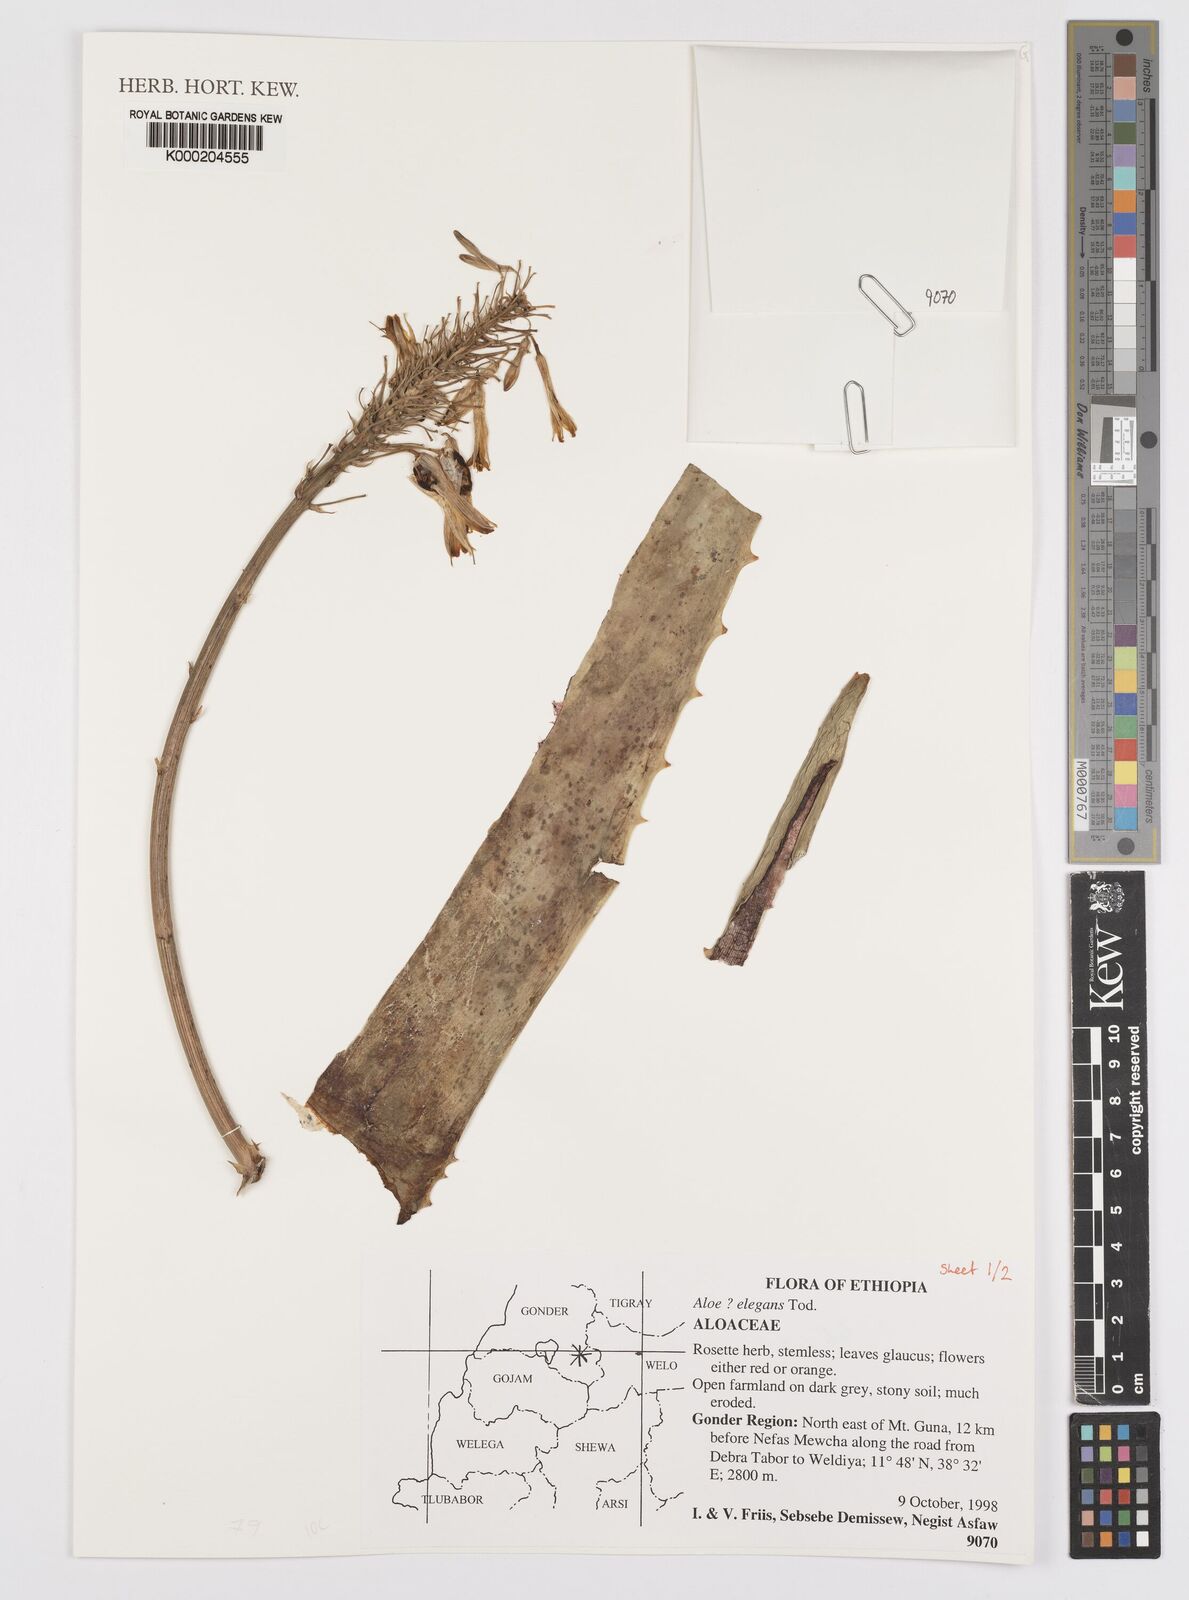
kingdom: Plantae
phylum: Tracheophyta
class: Liliopsida
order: Asparagales
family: Asphodelaceae
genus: Aloe
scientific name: Aloe elegans
